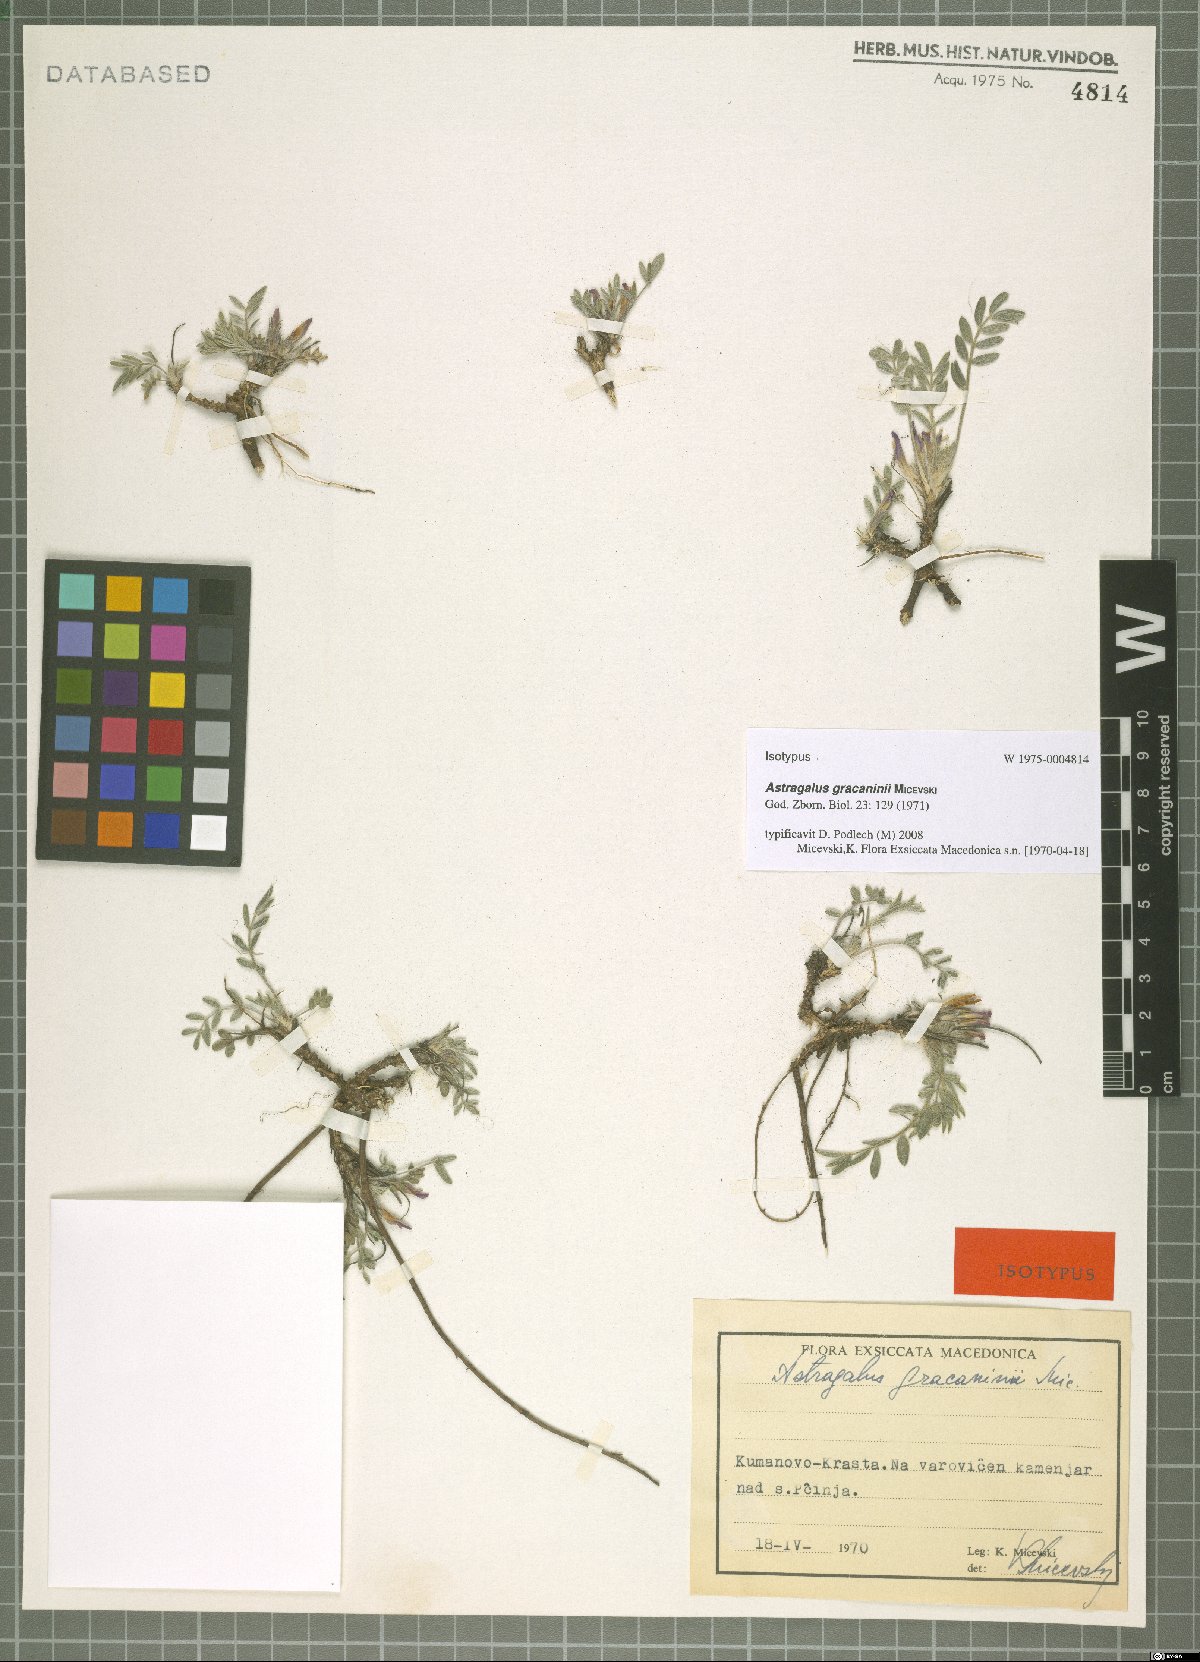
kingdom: Plantae
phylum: Tracheophyta
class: Magnoliopsida
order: Fabales
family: Fabaceae
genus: Astragalus
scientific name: Astragalus gracaninii
